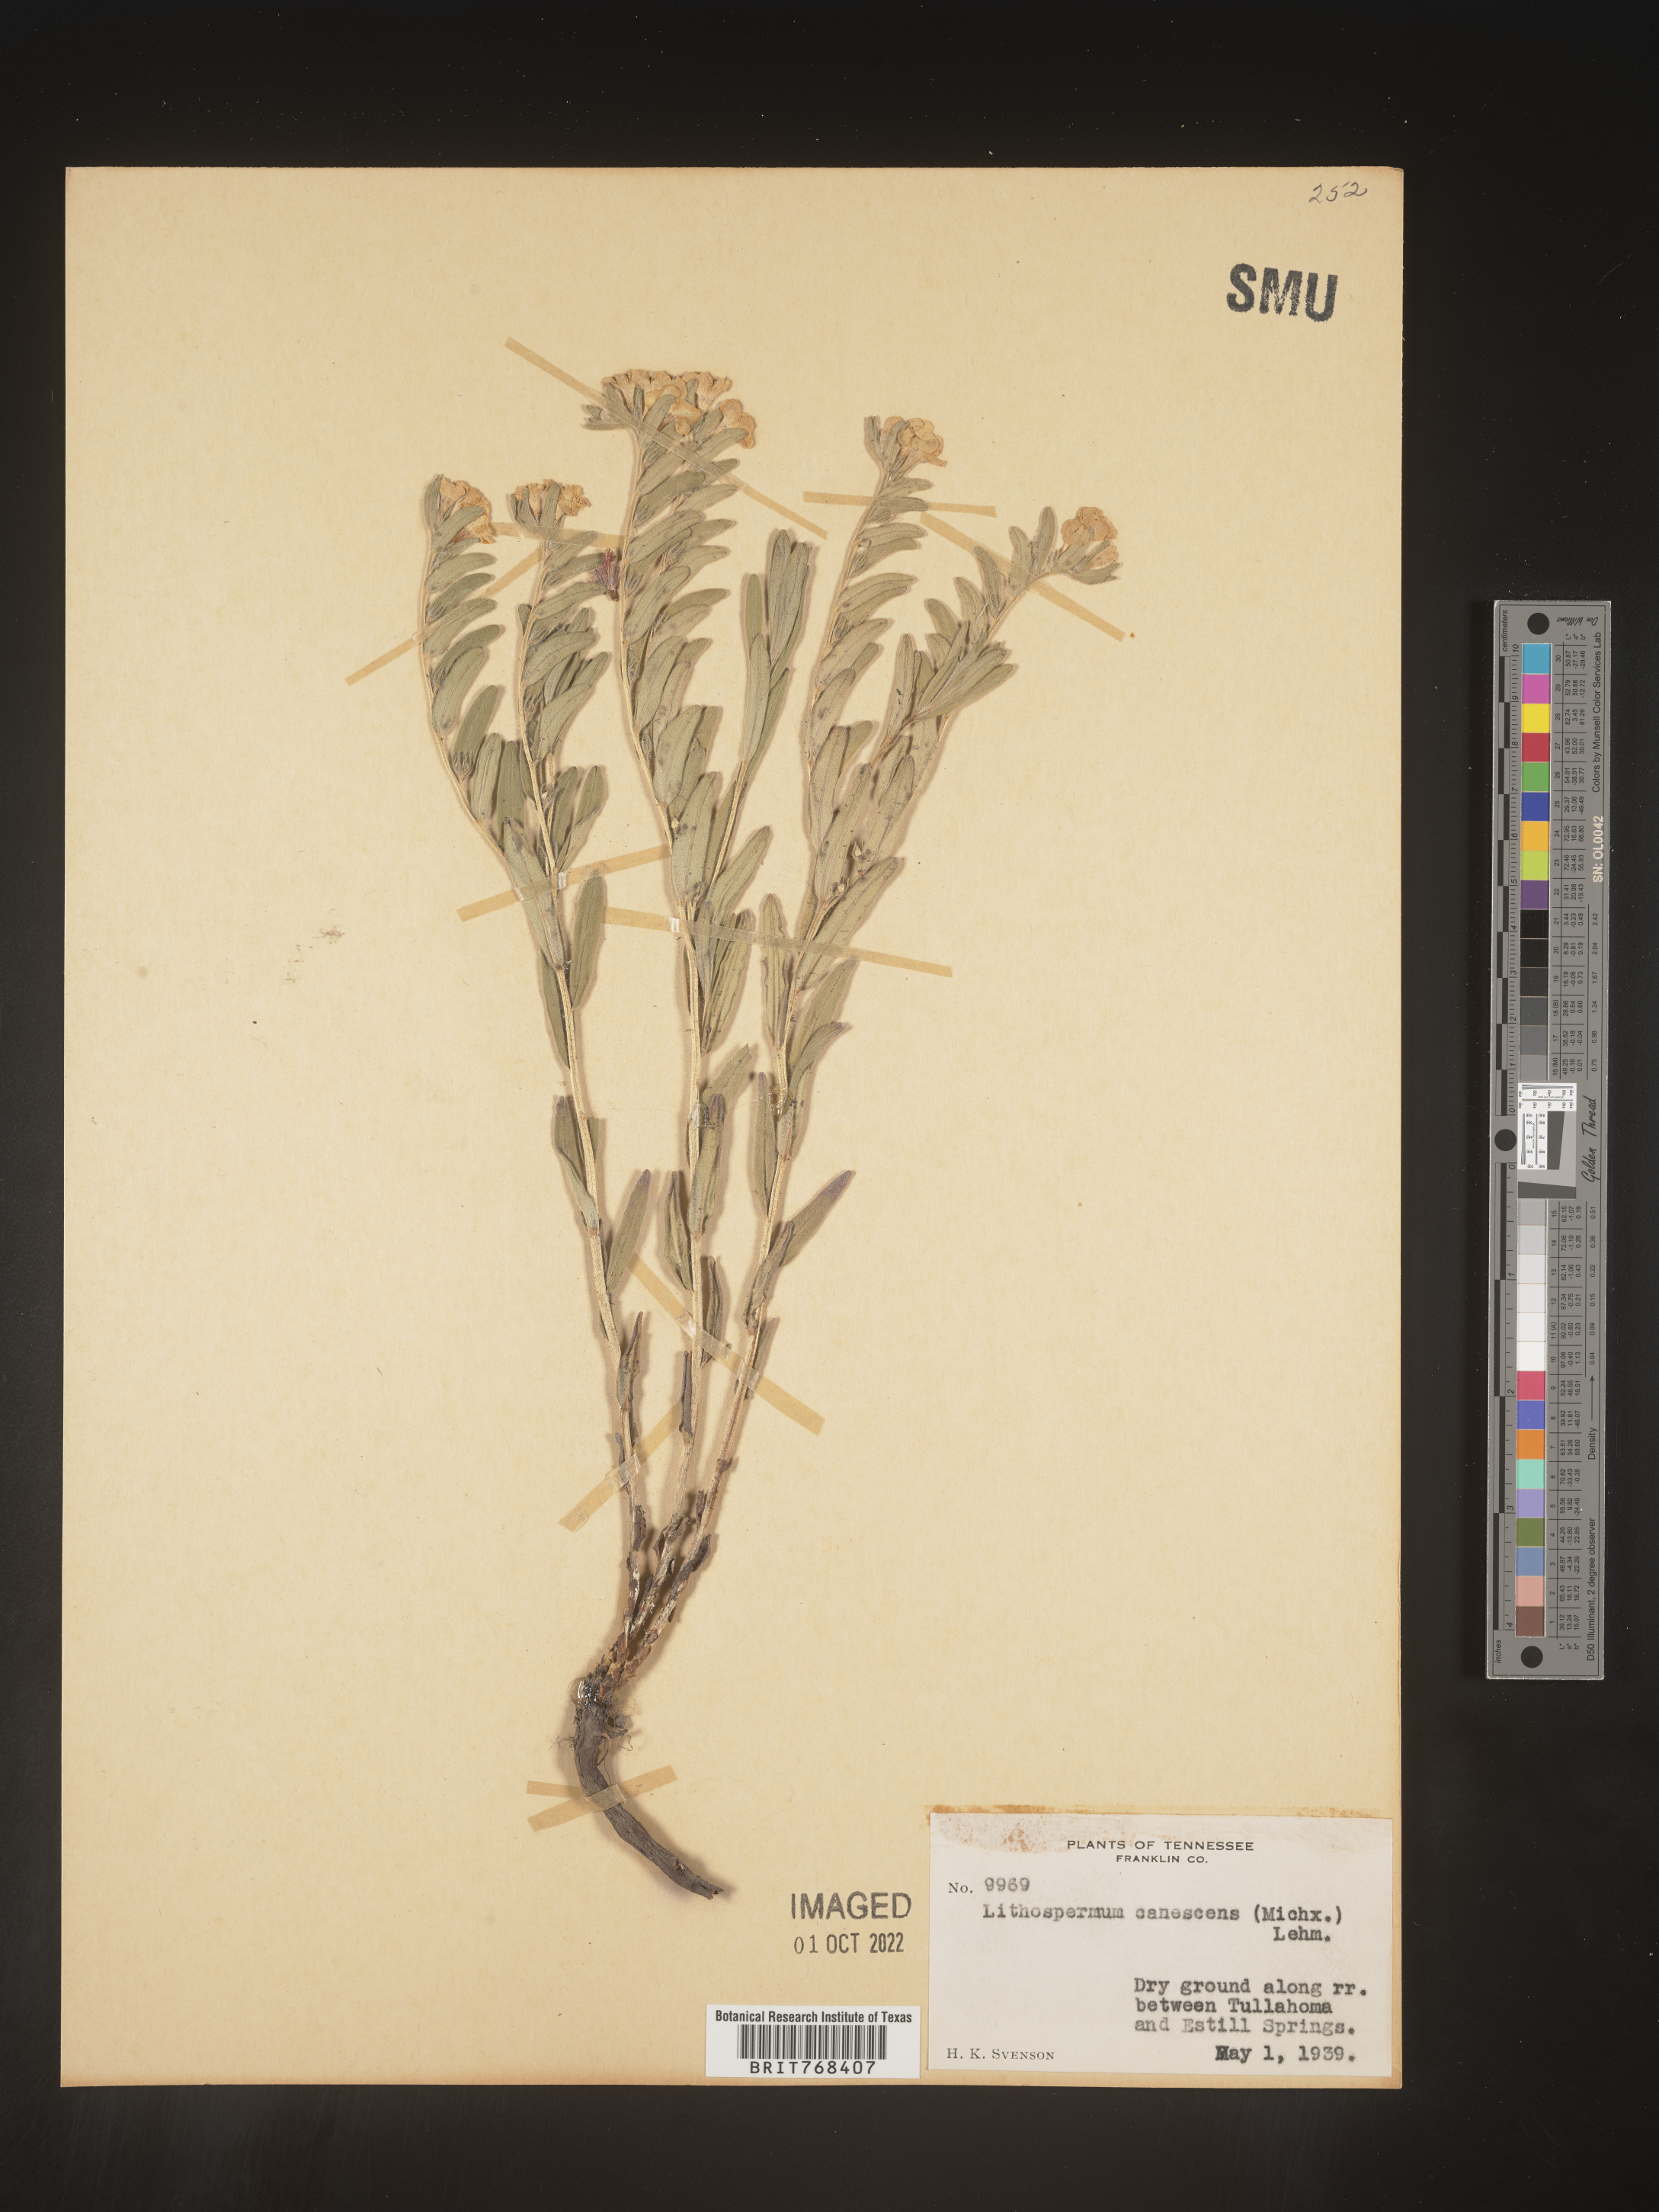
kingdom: Plantae
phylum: Tracheophyta
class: Magnoliopsida
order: Boraginales
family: Boraginaceae
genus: Lithospermum
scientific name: Lithospermum canescens
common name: Hoary puccoon
